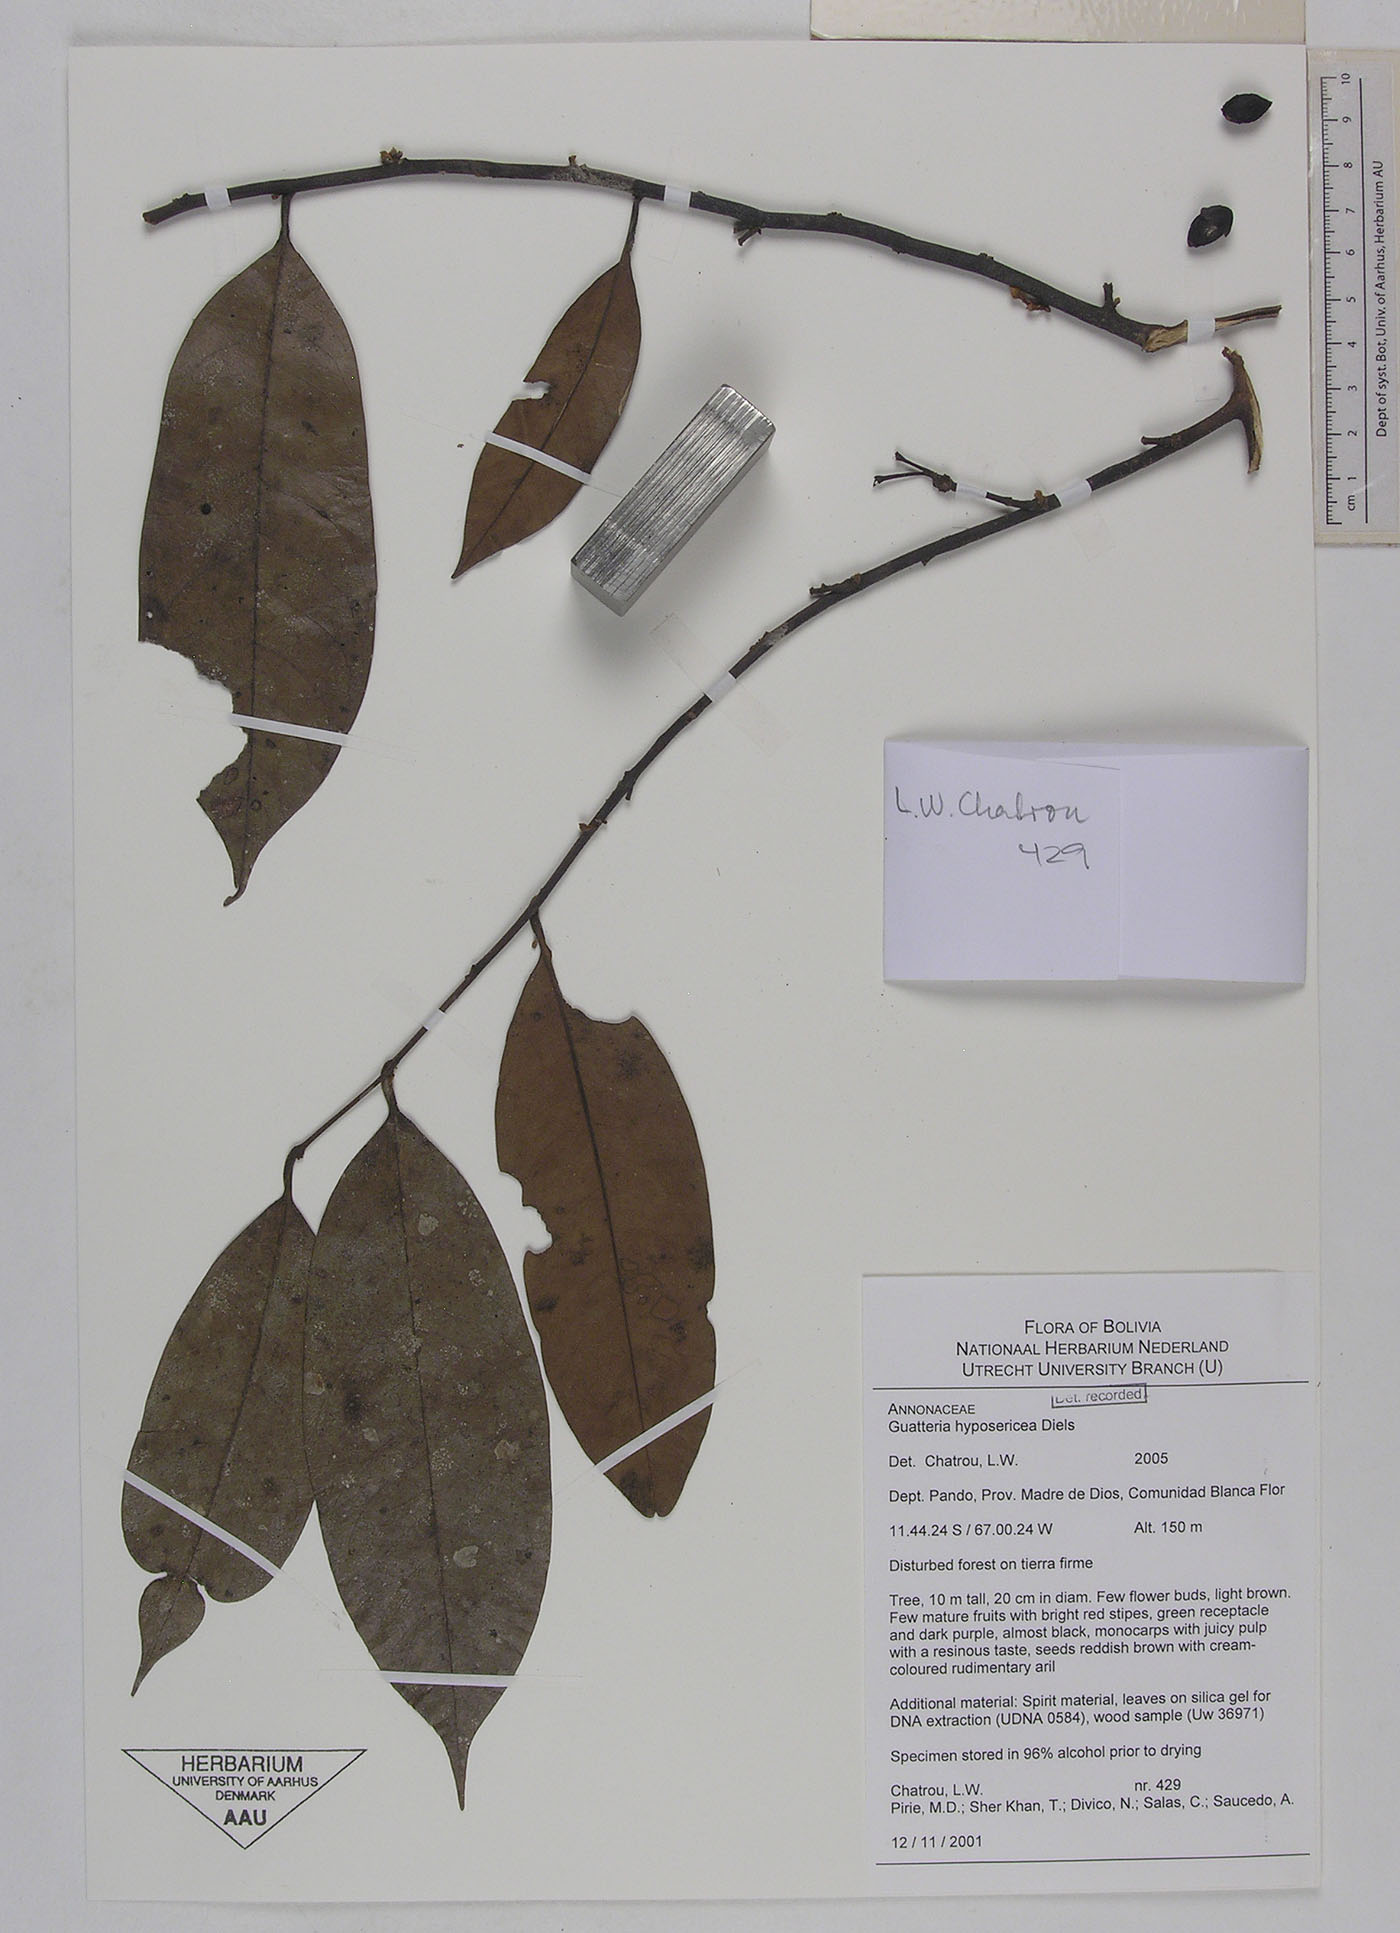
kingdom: Plantae
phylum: Tracheophyta
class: Magnoliopsida
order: Magnoliales
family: Annonaceae
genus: Guatteria
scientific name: Guatteria scytophylla
